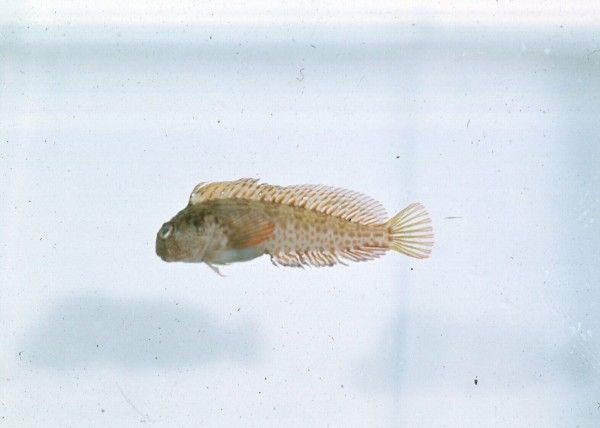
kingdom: Animalia
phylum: Chordata
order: Perciformes
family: Blenniidae
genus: Parablennius
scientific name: Parablennius cornutus
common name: Horned blenny
